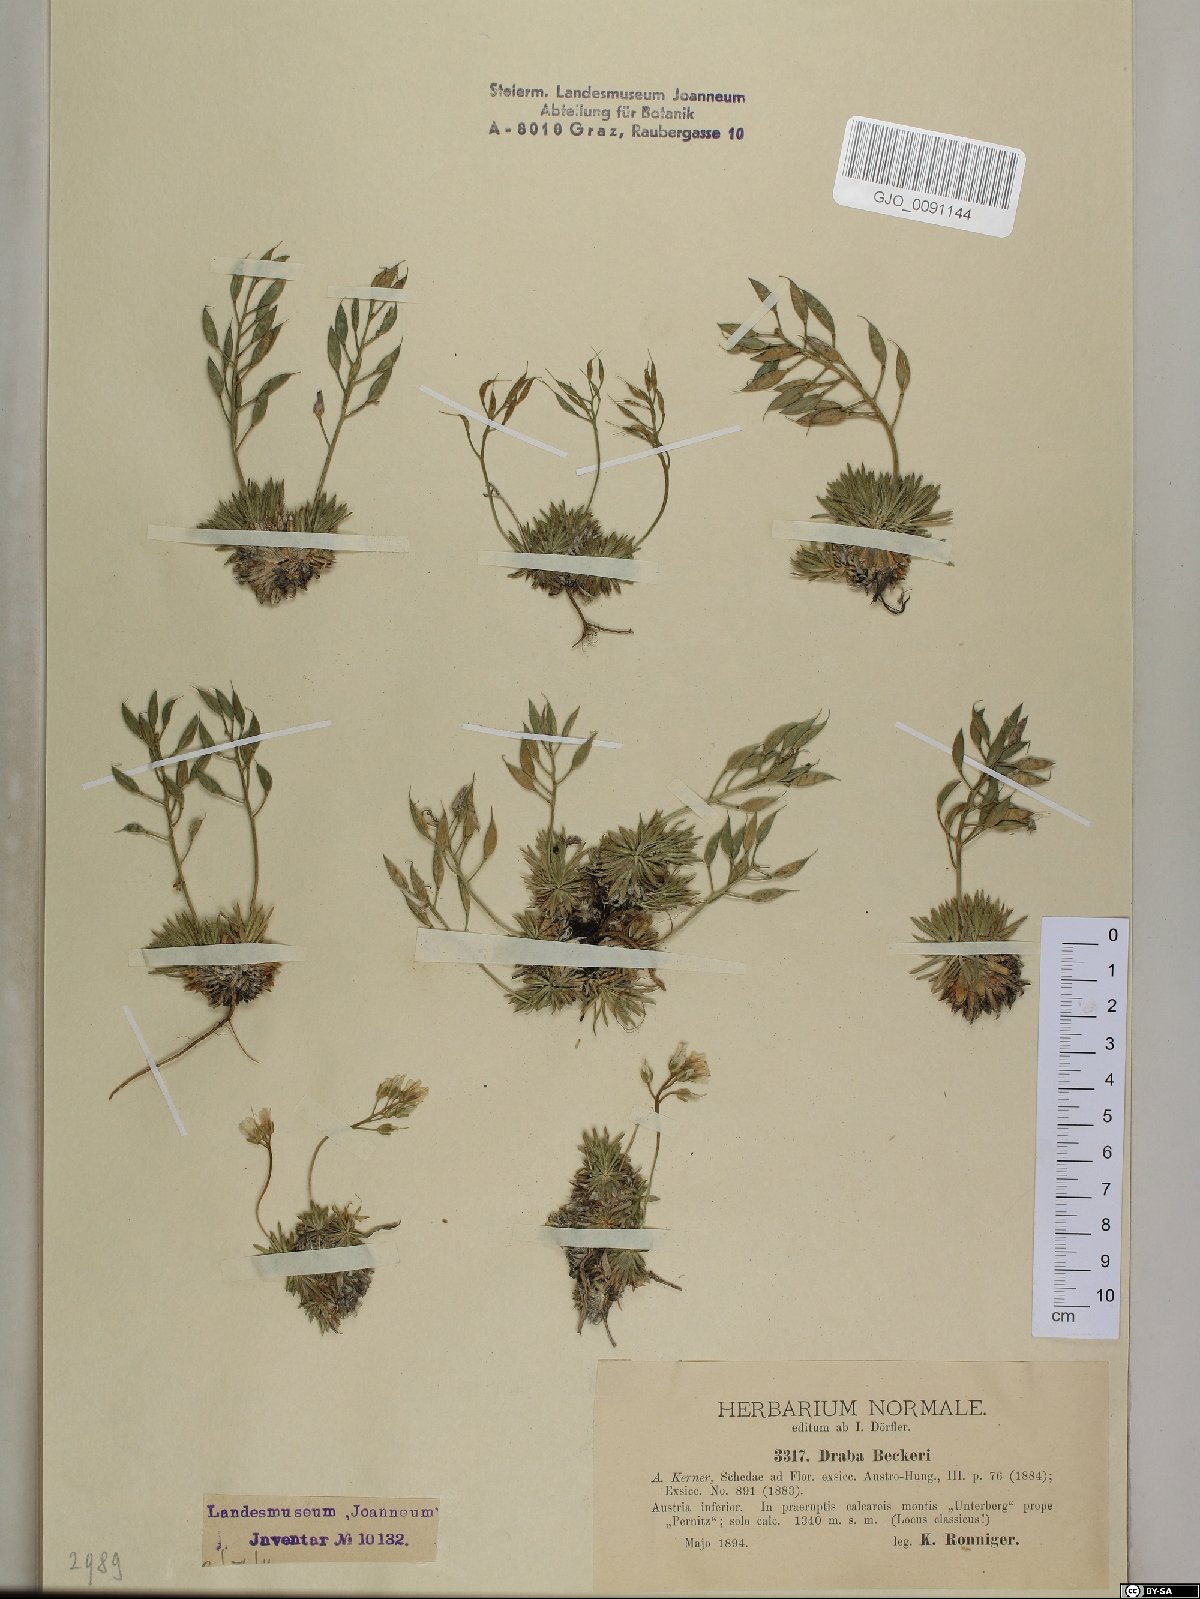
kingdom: Plantae
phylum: Tracheophyta
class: Magnoliopsida
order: Brassicales
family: Brassicaceae
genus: Draba
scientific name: Draba aizoides
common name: Yellow whitlowgrass
